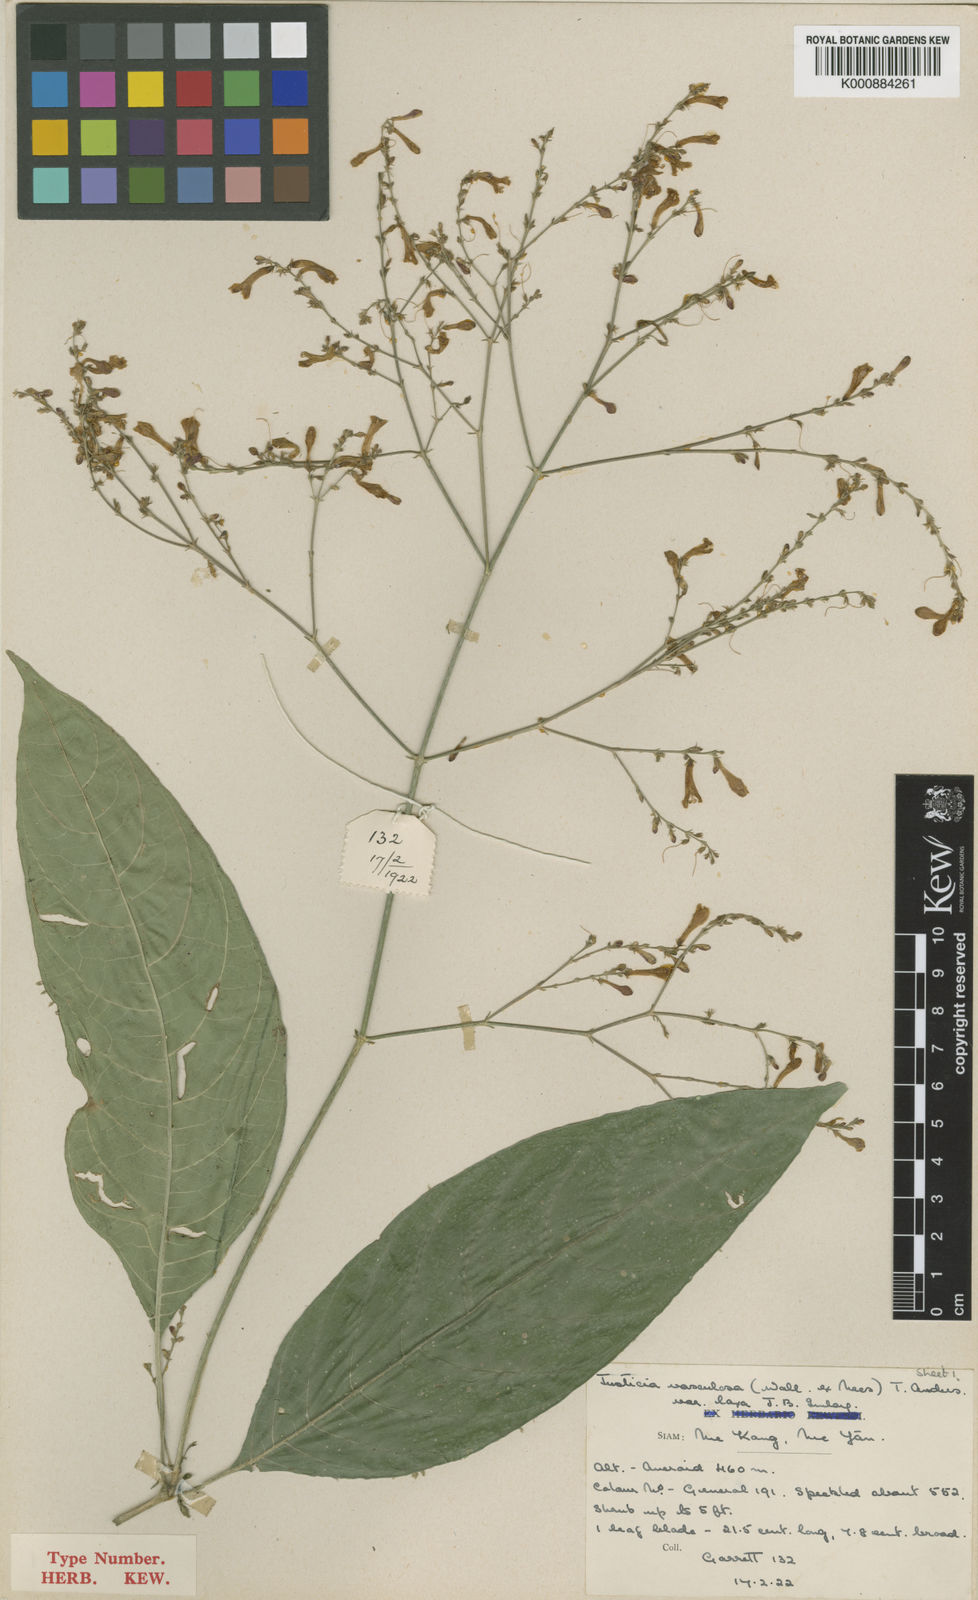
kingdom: Plantae
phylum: Tracheophyta
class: Magnoliopsida
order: Lamiales
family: Acanthaceae
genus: Justicia
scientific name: Justicia imlayae
